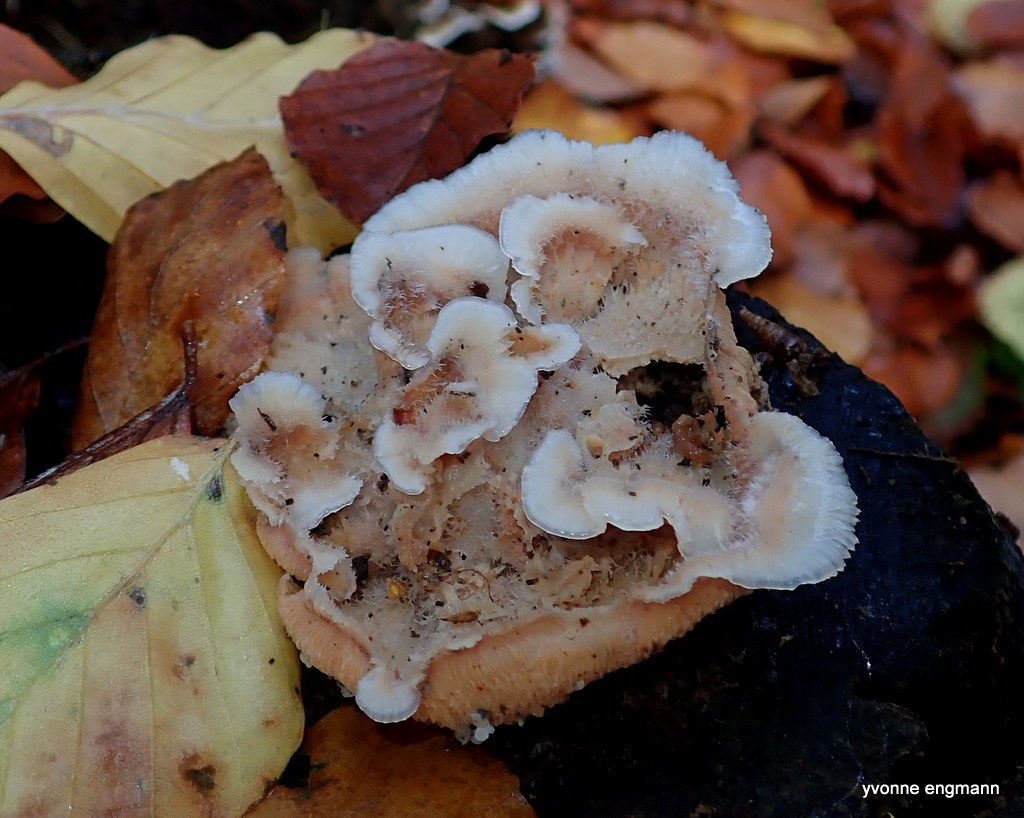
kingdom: Fungi
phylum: Basidiomycota
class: Agaricomycetes
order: Polyporales
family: Meruliaceae
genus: Phlebia
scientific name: Phlebia tremellosa
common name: bævrende åresvamp
